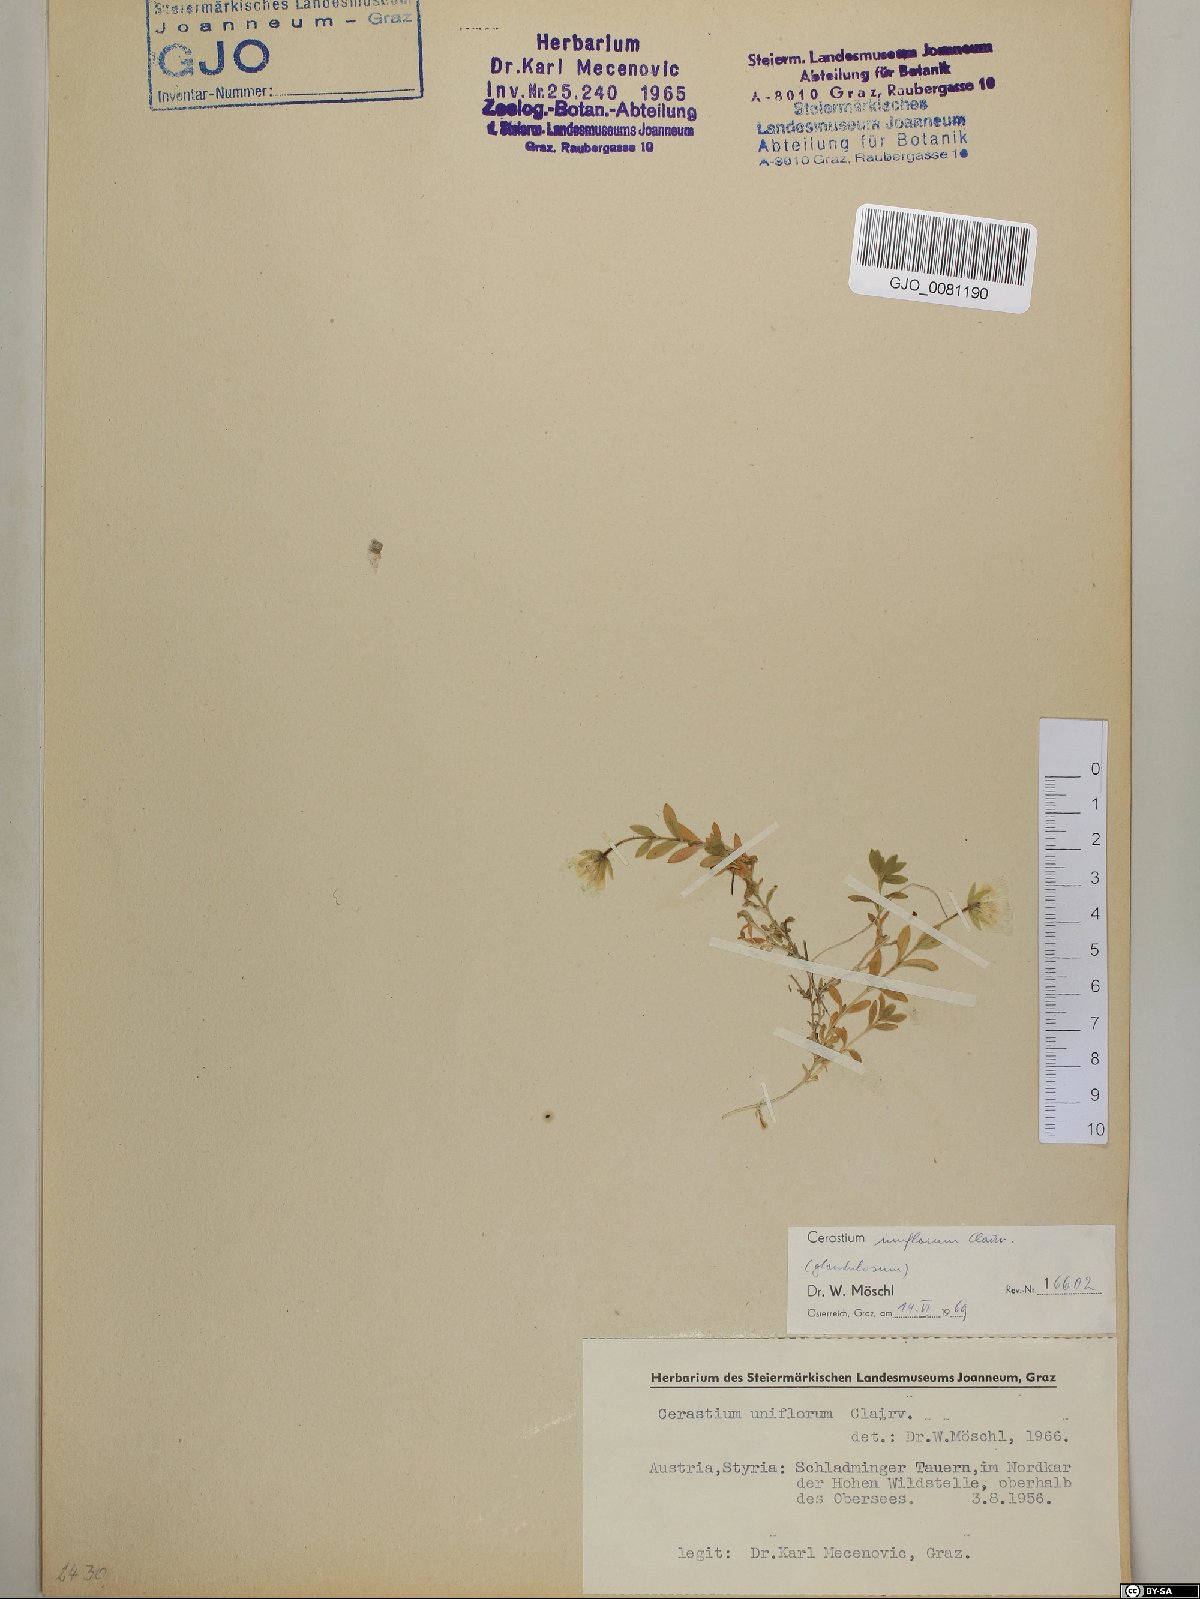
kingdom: Plantae
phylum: Tracheophyta
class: Magnoliopsida
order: Caryophyllales
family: Caryophyllaceae
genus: Cerastium
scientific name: Cerastium uniflorum
